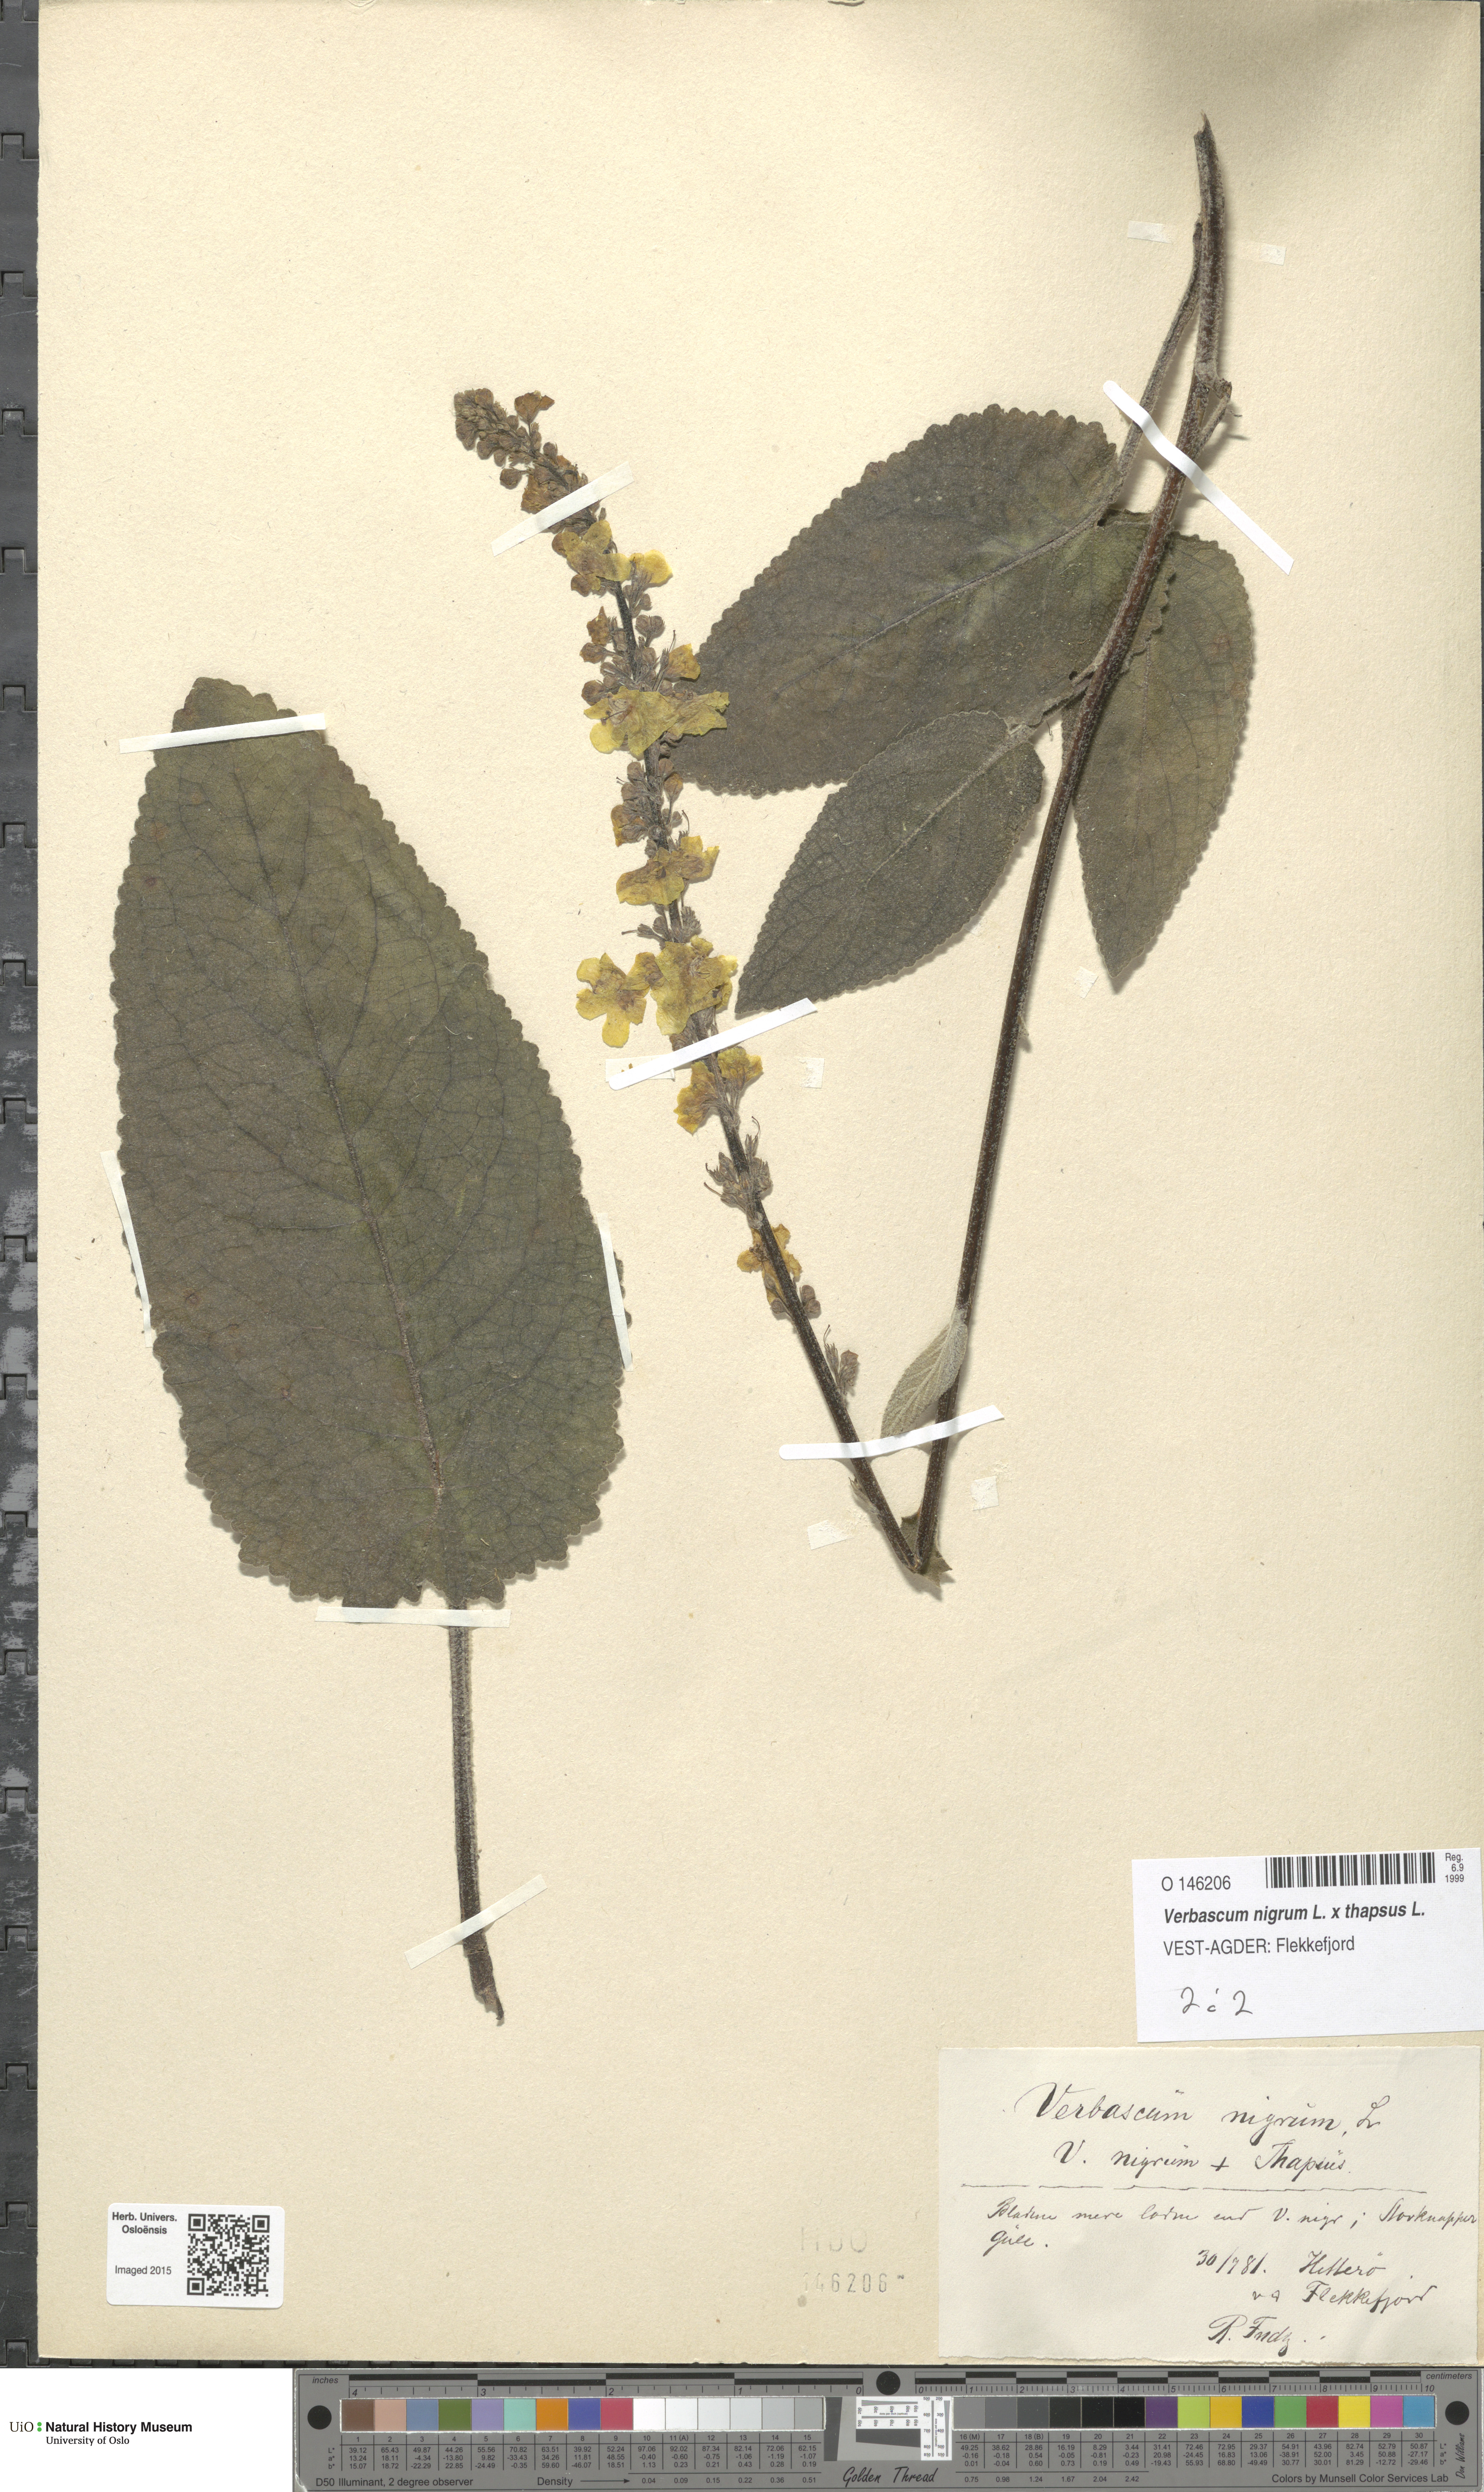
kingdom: Plantae
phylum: Tracheophyta
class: Magnoliopsida
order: Lamiales
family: Scrophulariaceae
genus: Verbascum
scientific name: Verbascum
